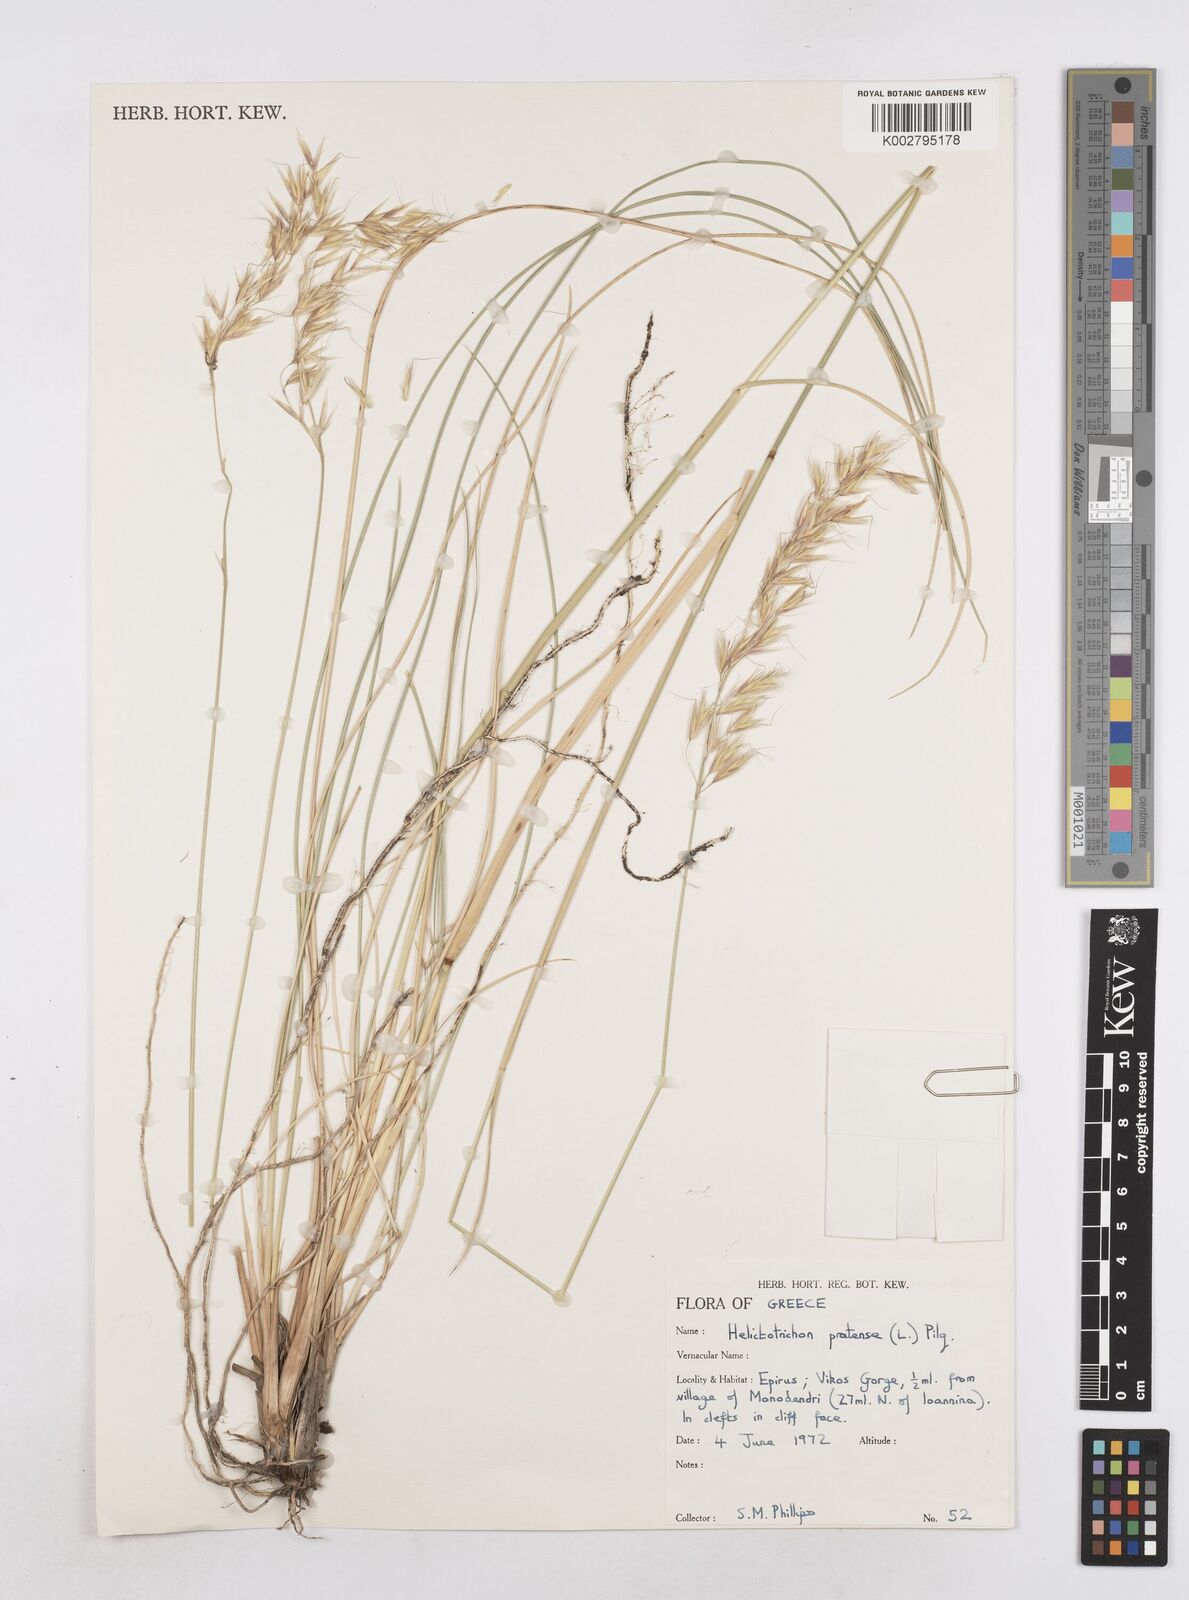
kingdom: Plantae
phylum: Tracheophyta
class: Liliopsida
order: Poales
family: Poaceae
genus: Helictochloa
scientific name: Helictochloa pratensis
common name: Meadow oat grass
